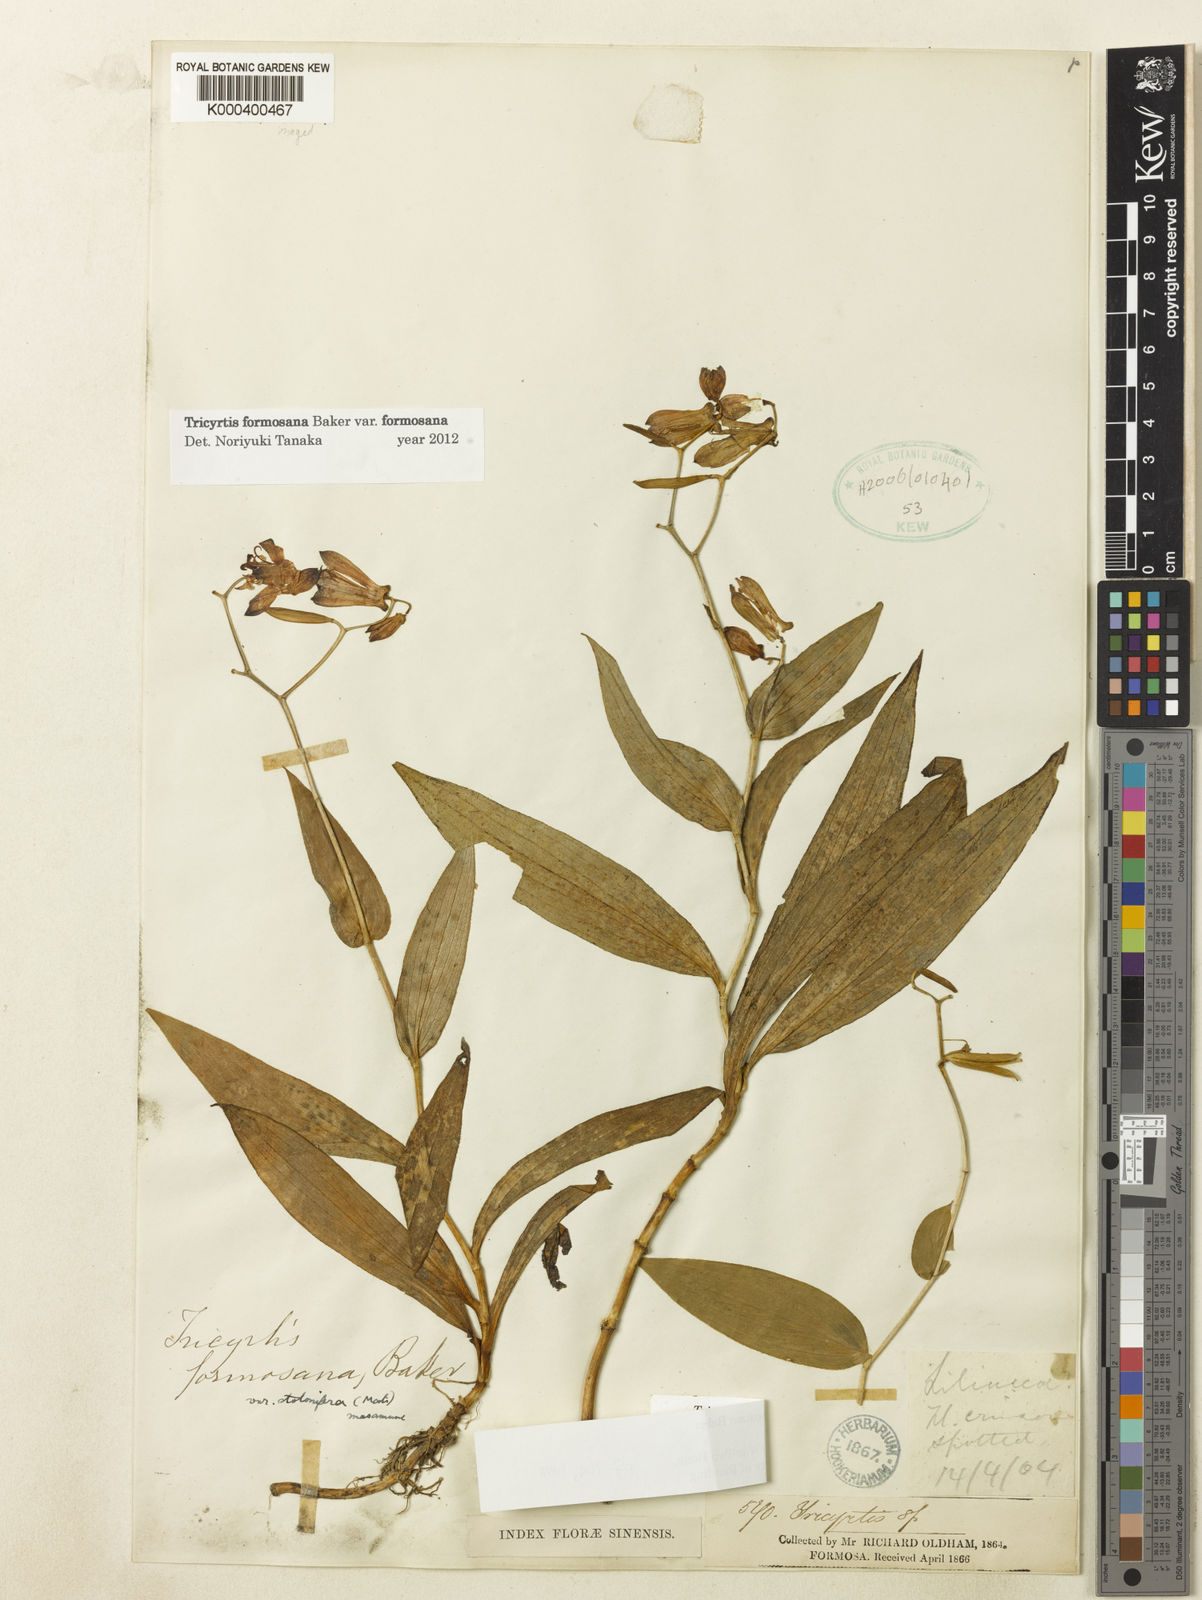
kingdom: Plantae
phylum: Tracheophyta
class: Liliopsida
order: Liliales
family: Liliaceae
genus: Tricyrtis
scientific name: Tricyrtis formosana
